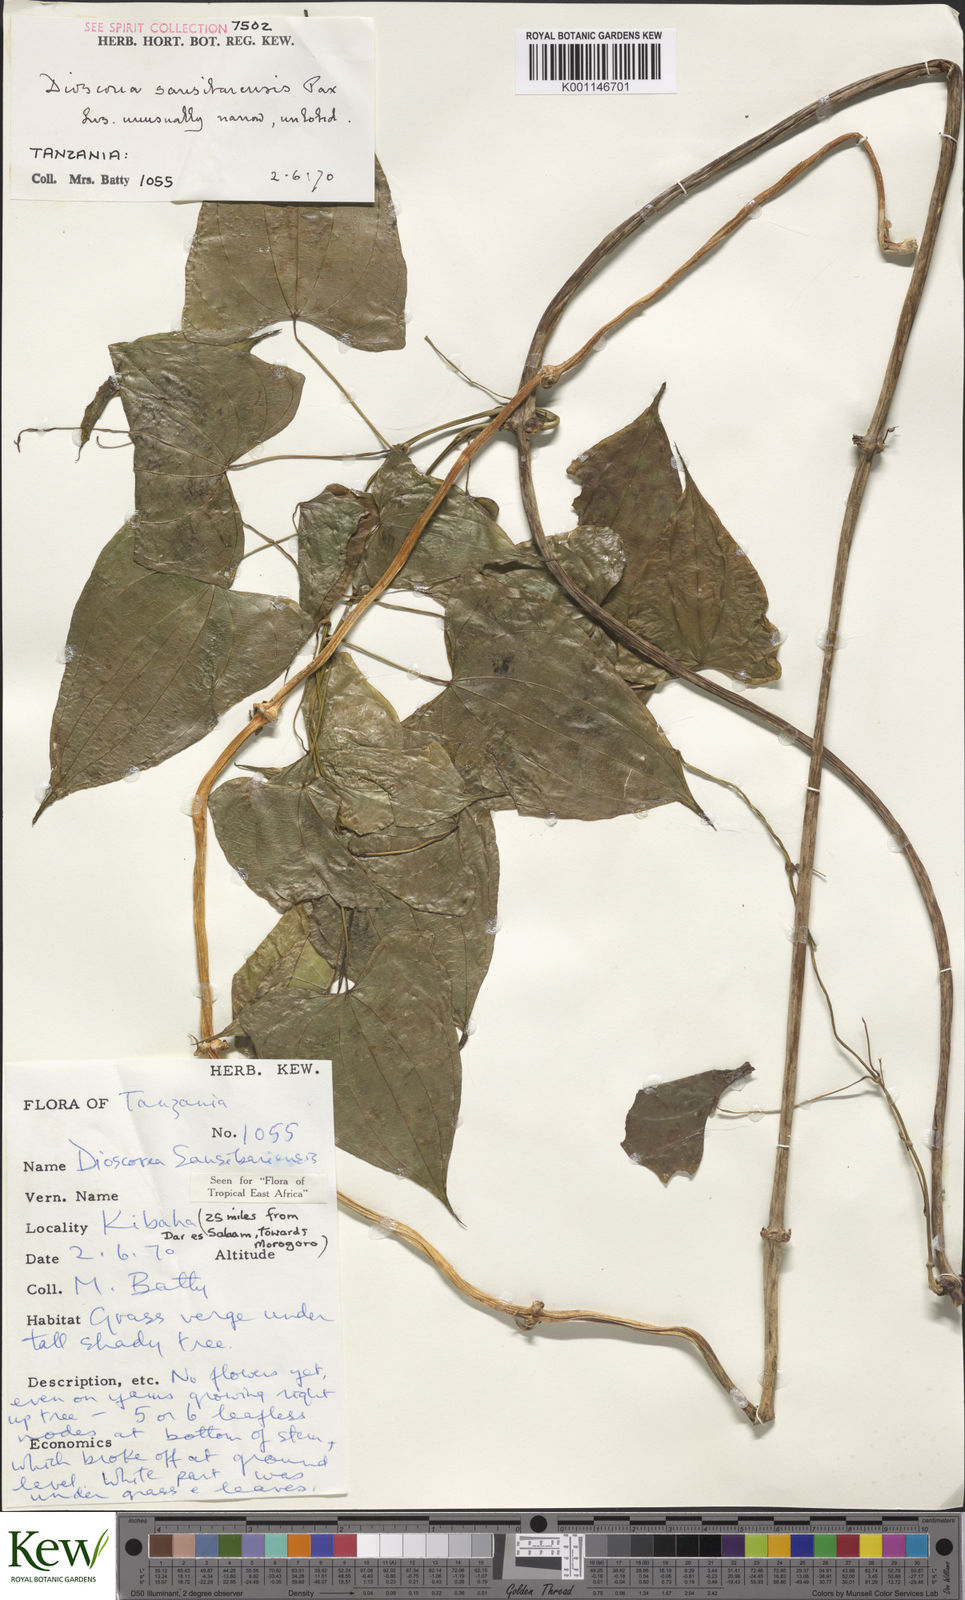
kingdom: Plantae
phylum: Tracheophyta
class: Liliopsida
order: Dioscoreales
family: Dioscoreaceae
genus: Dioscorea
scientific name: Dioscorea sansibarensis
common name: Zanzibar yam
